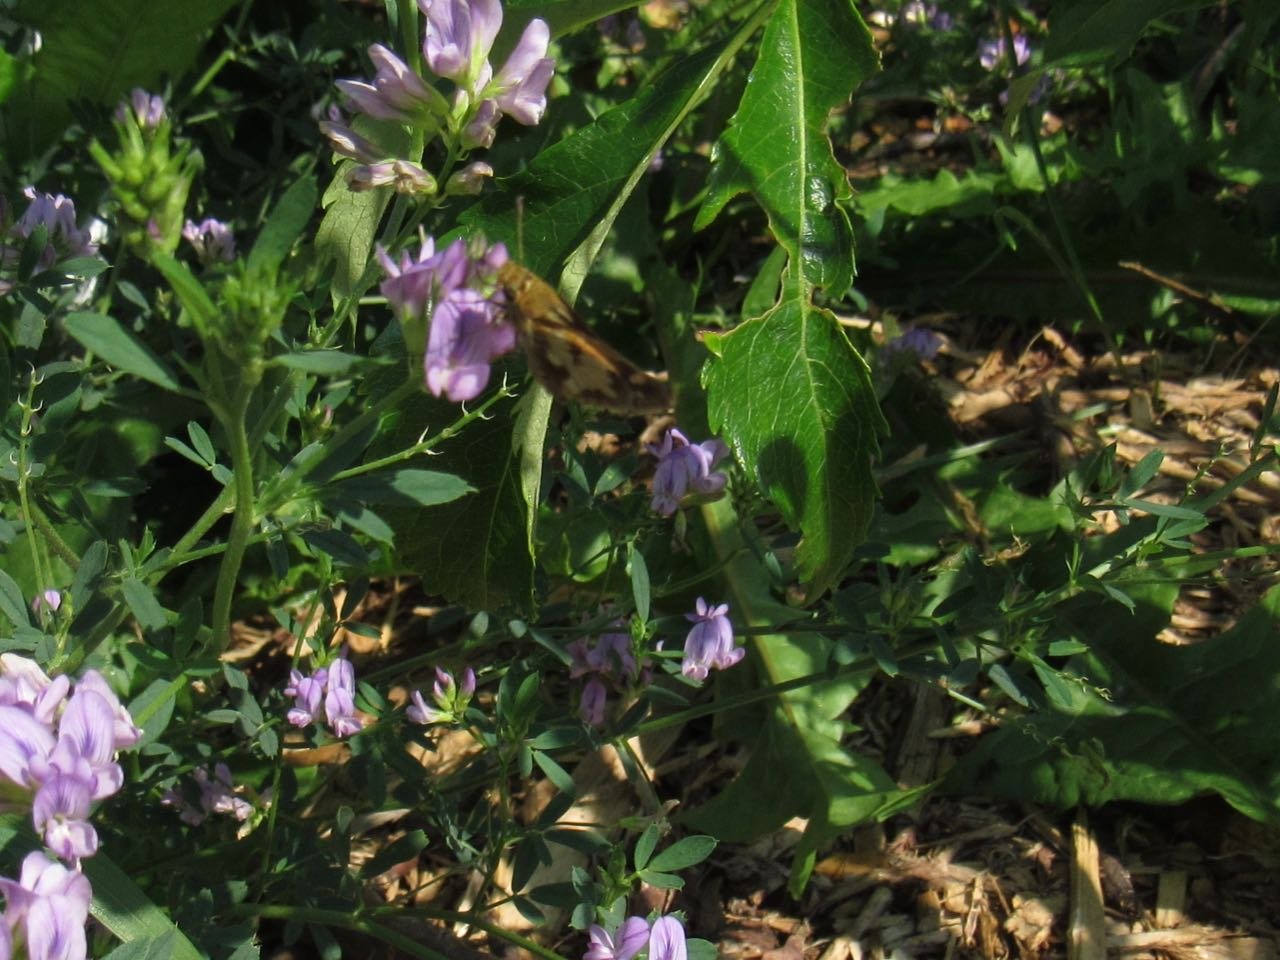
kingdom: Animalia
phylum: Arthropoda
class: Insecta
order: Lepidoptera
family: Hesperiidae
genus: Polites
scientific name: Polites coras
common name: Peck's Skipper
